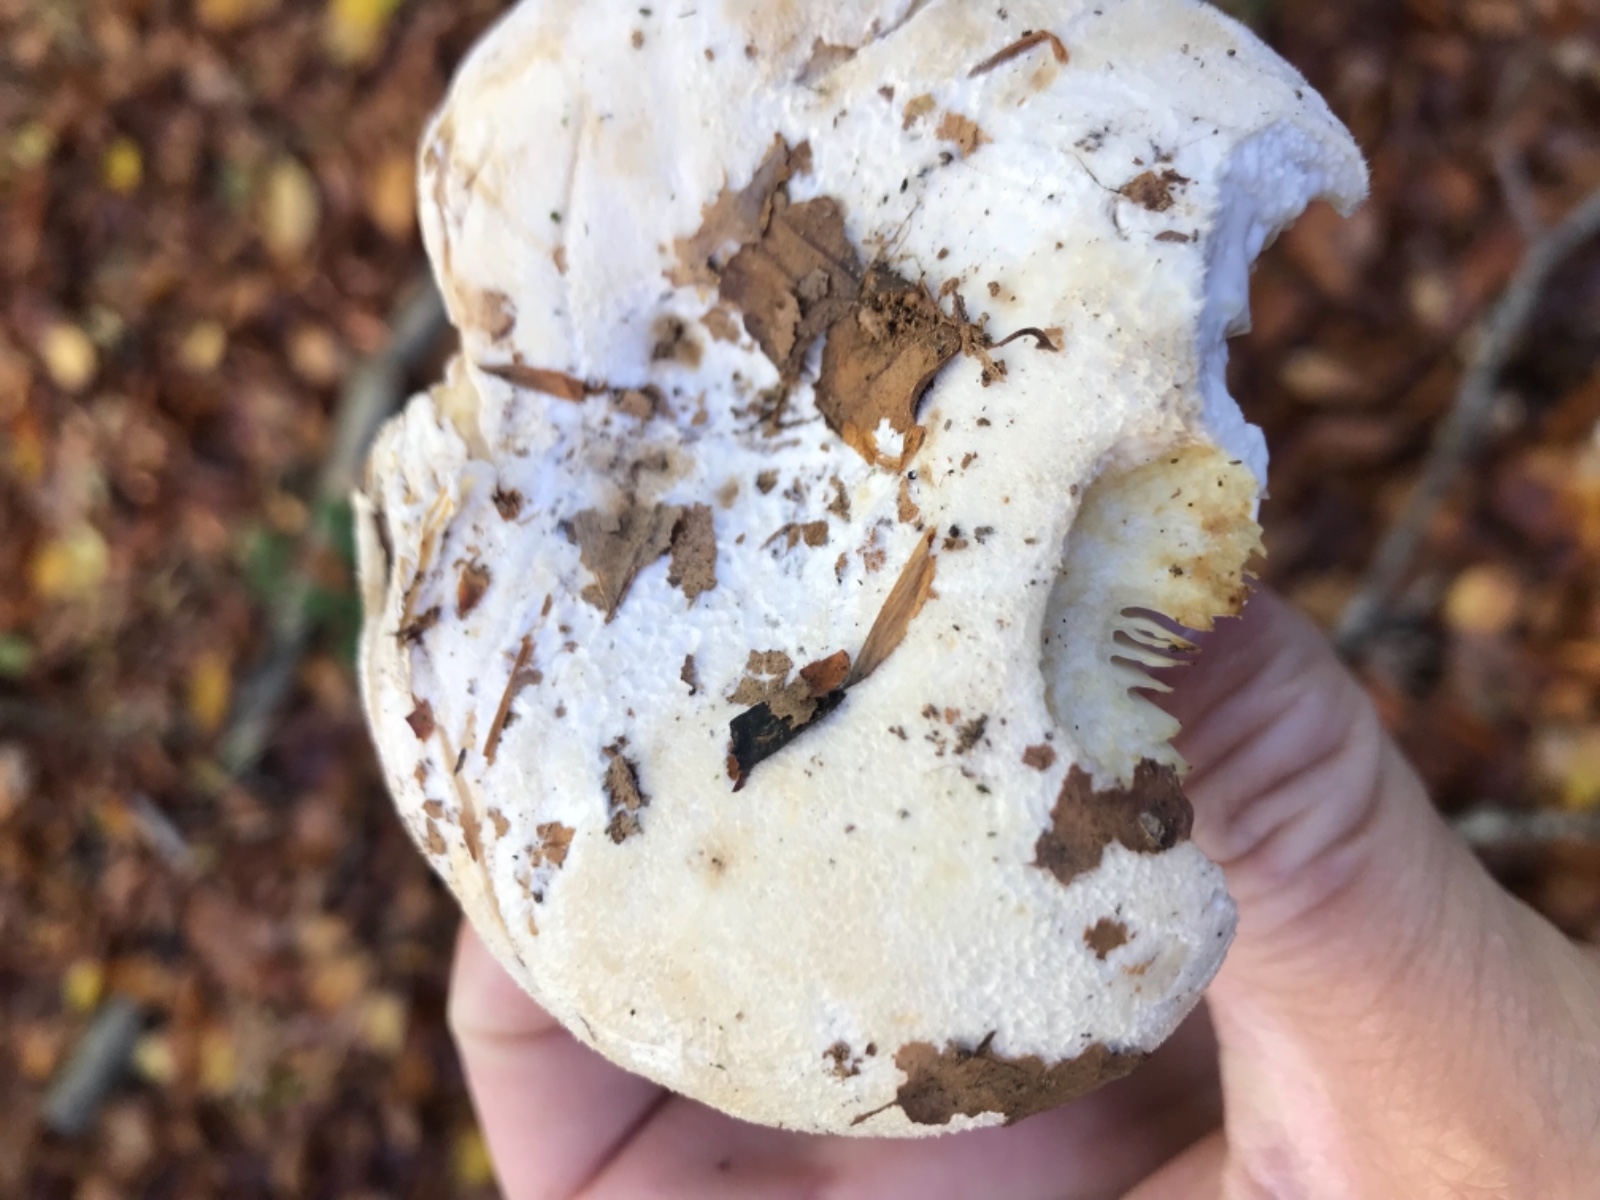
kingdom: Fungi
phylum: Basidiomycota
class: Agaricomycetes
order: Russulales
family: Russulaceae
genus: Lactifluus
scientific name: Lactifluus vellereus
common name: hvidfiltet mælkehat
